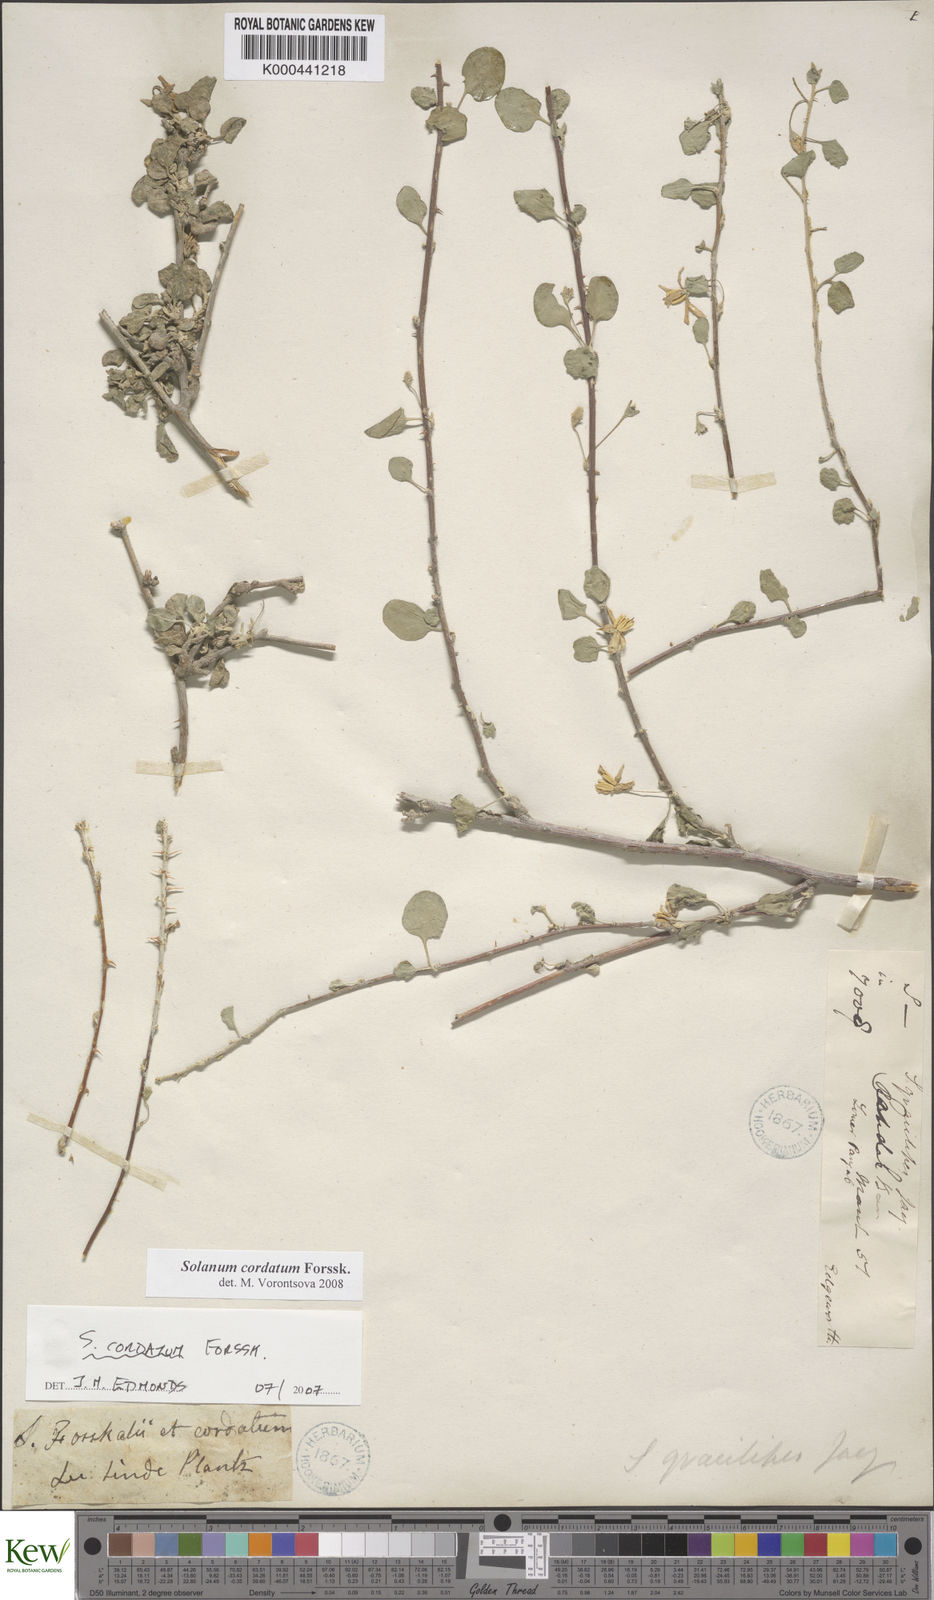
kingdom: Plantae
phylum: Tracheophyta
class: Magnoliopsida
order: Solanales
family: Solanaceae
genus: Solanum
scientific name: Solanum cordatum
